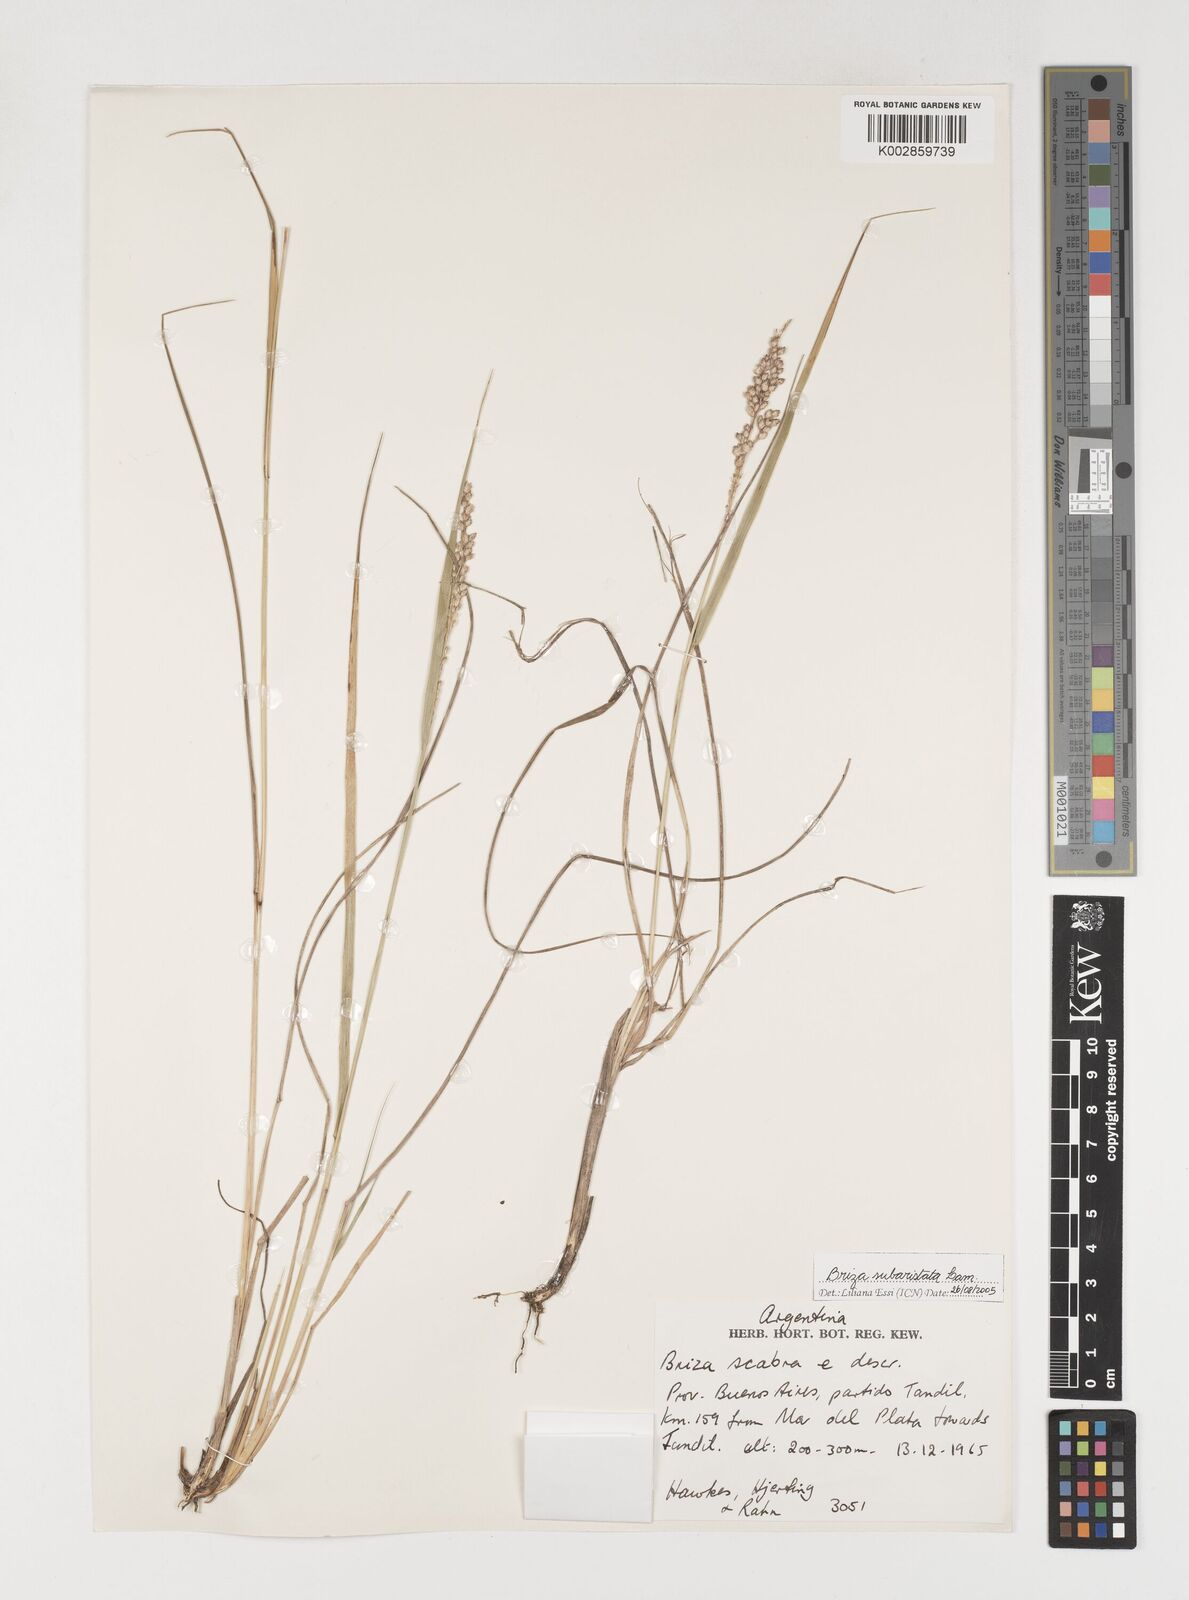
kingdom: Plantae
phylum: Tracheophyta
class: Liliopsida
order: Poales
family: Poaceae
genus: Chascolytrum
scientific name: Chascolytrum subaristatum
